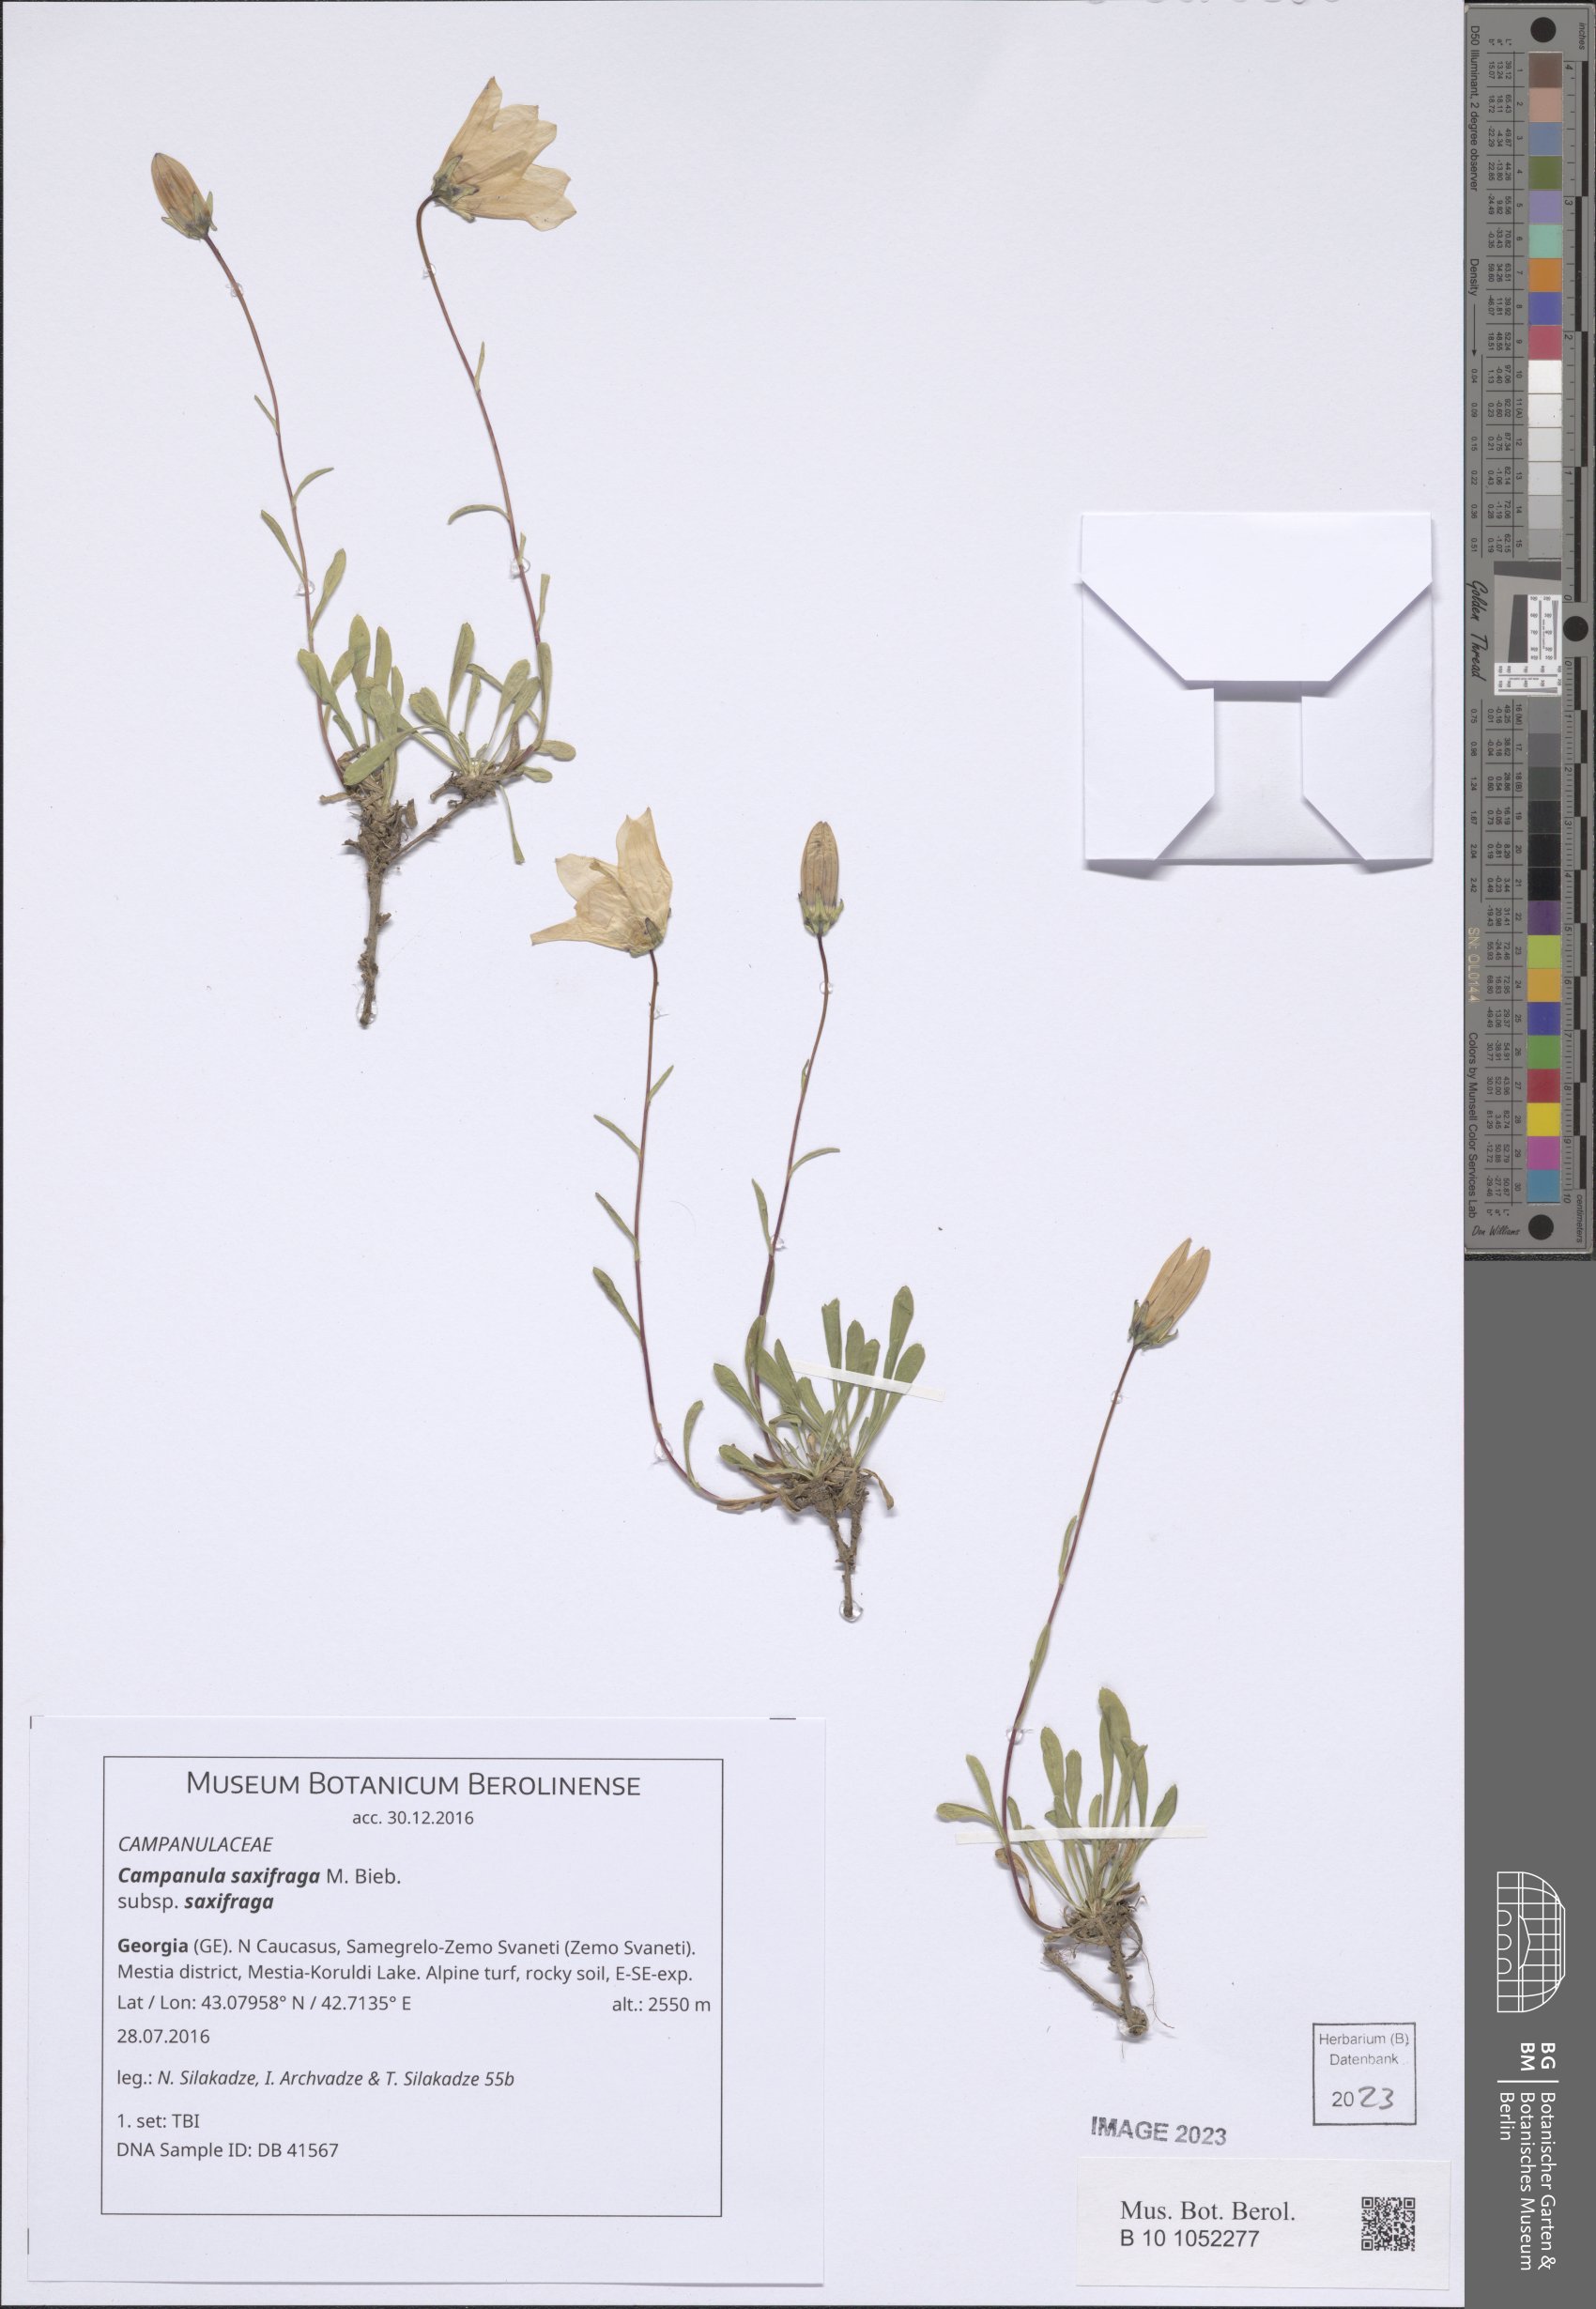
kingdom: Plantae
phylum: Tracheophyta
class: Magnoliopsida
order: Asterales
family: Campanulaceae
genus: Campanula
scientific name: Campanula saxifraga
